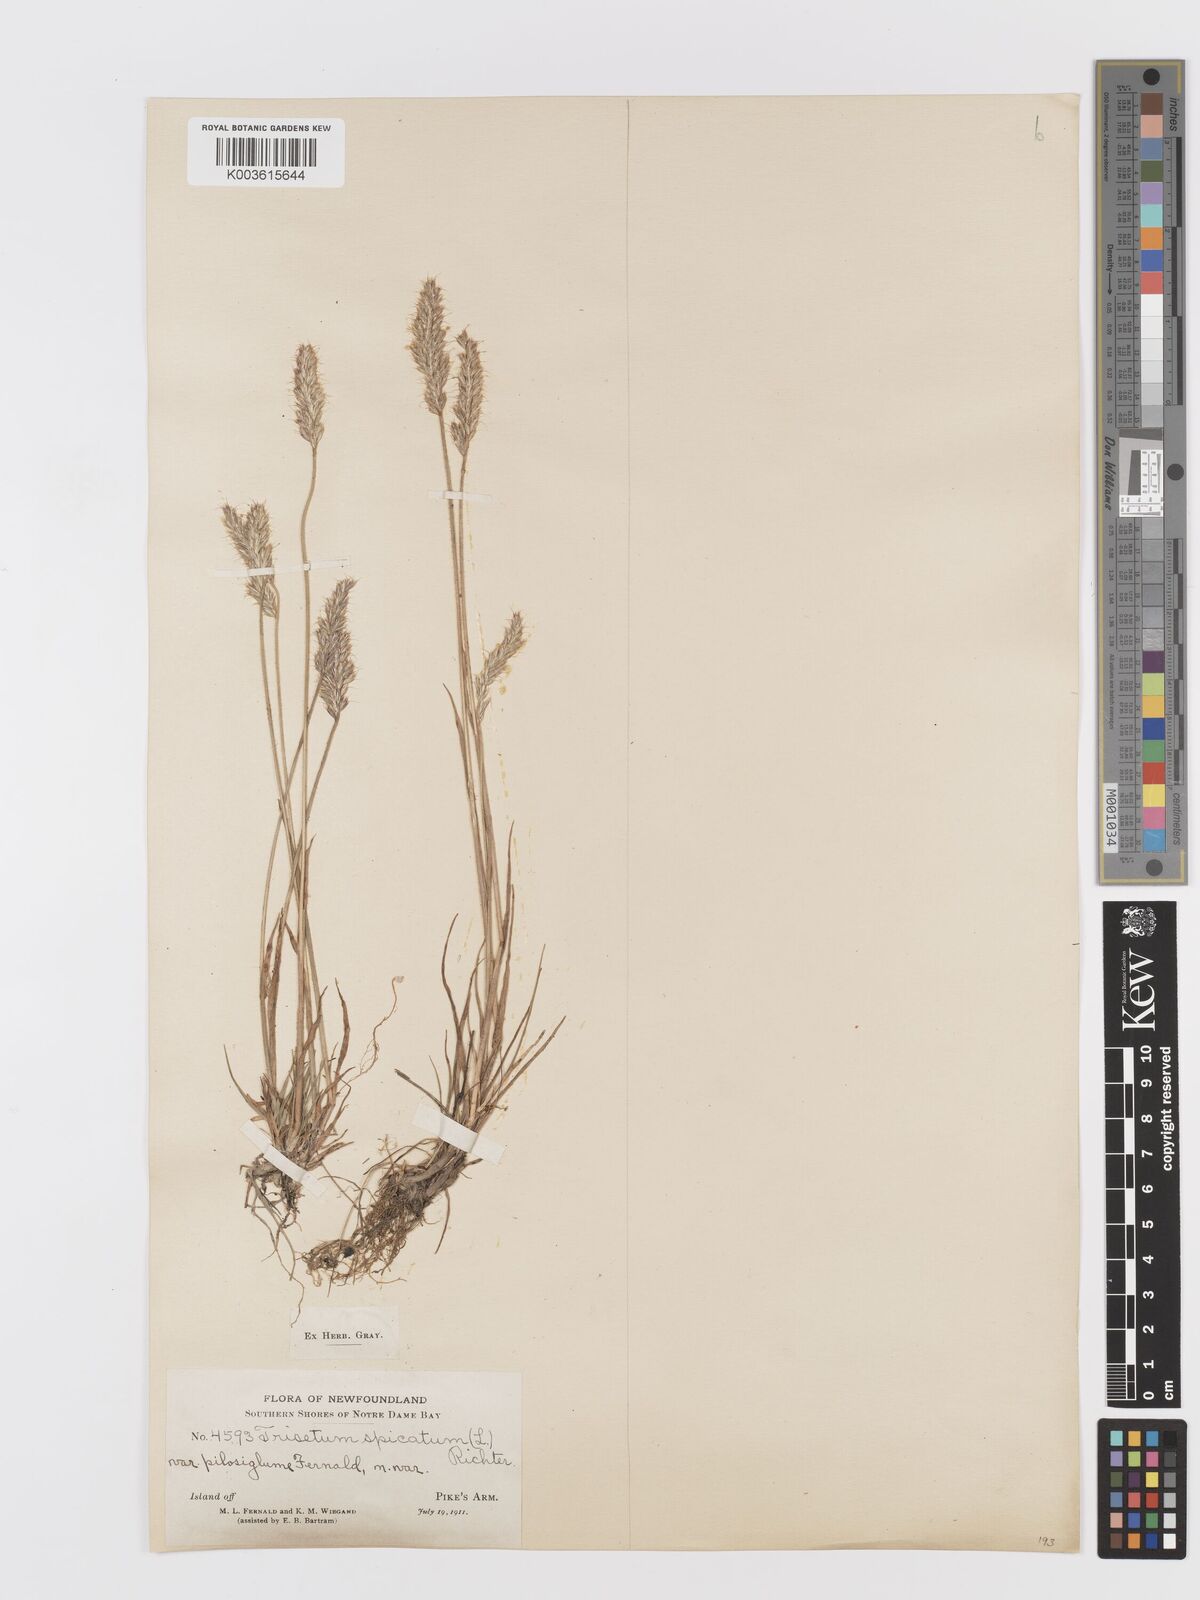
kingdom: Plantae
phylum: Tracheophyta
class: Liliopsida
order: Poales
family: Poaceae
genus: Koeleria
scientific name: Koeleria spicata
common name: Mountain trisetum
